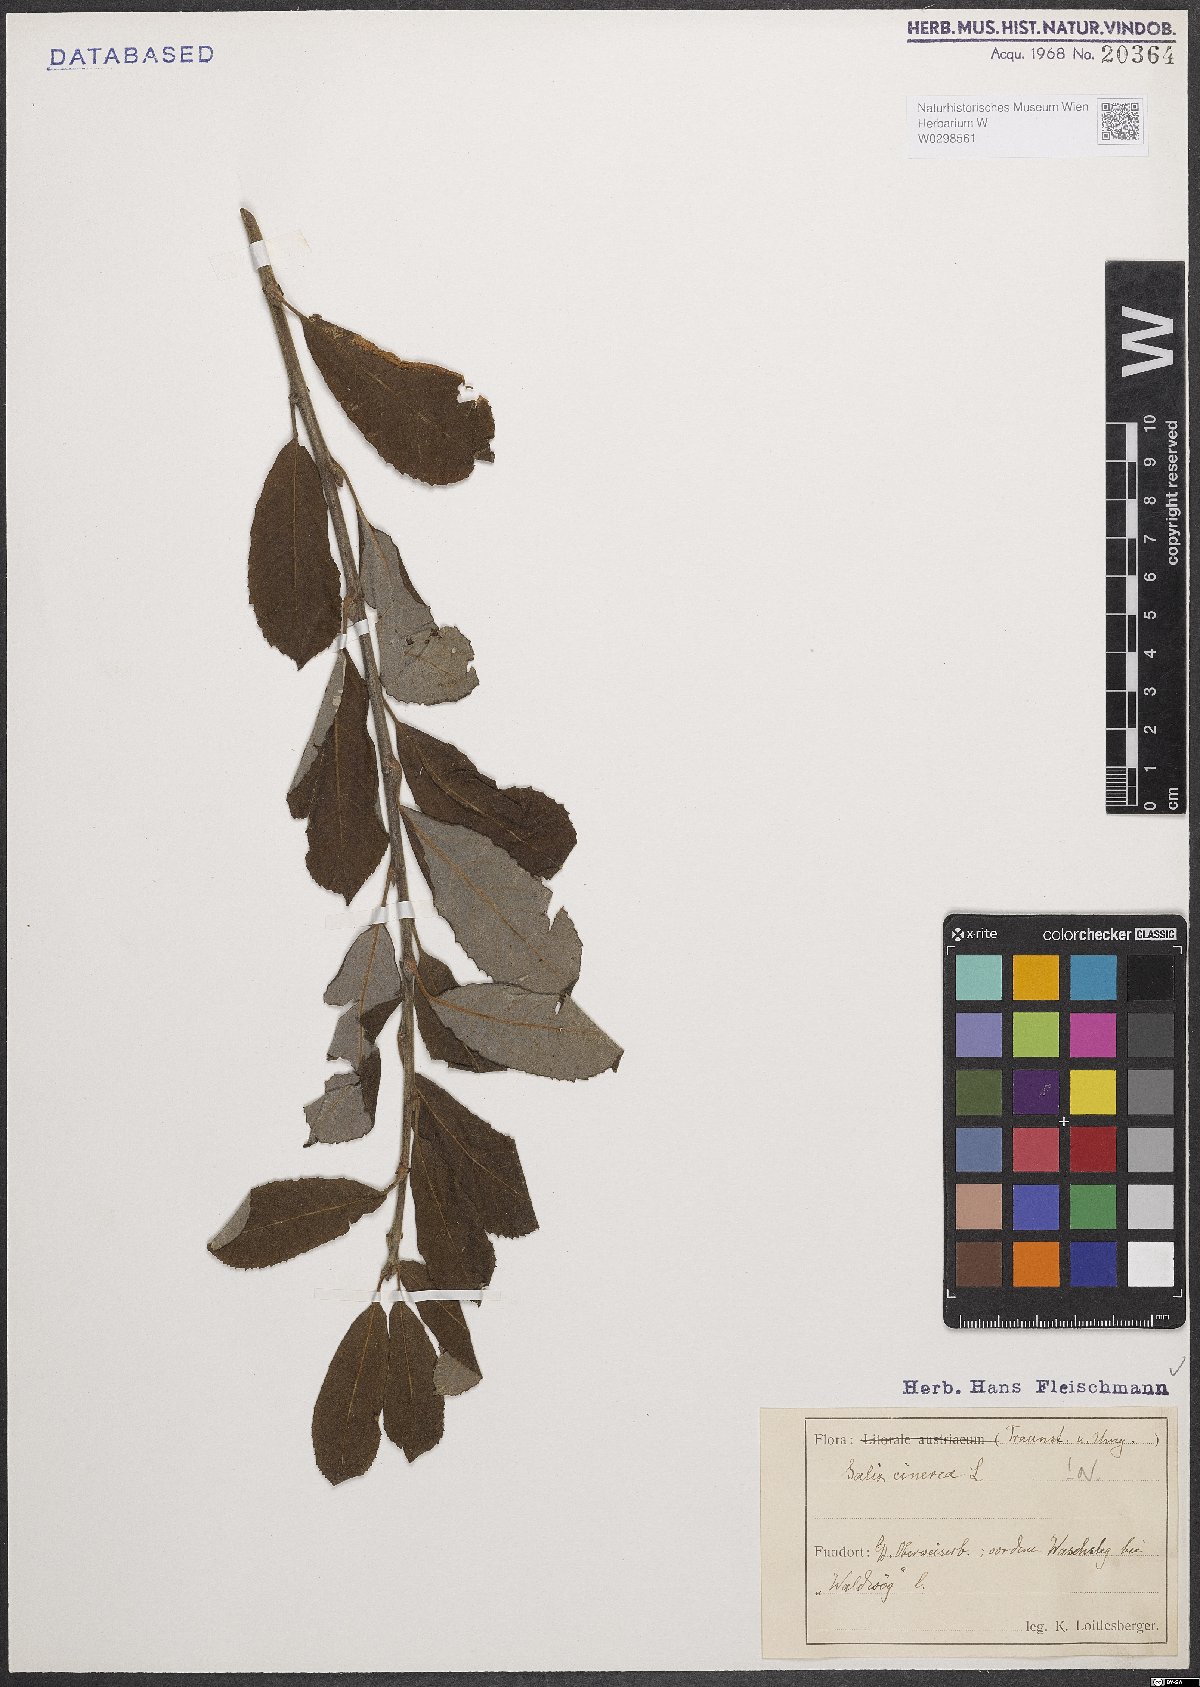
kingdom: Plantae
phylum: Tracheophyta
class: Magnoliopsida
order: Malpighiales
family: Salicaceae
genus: Salix
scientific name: Salix cinerea
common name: Common sallow
